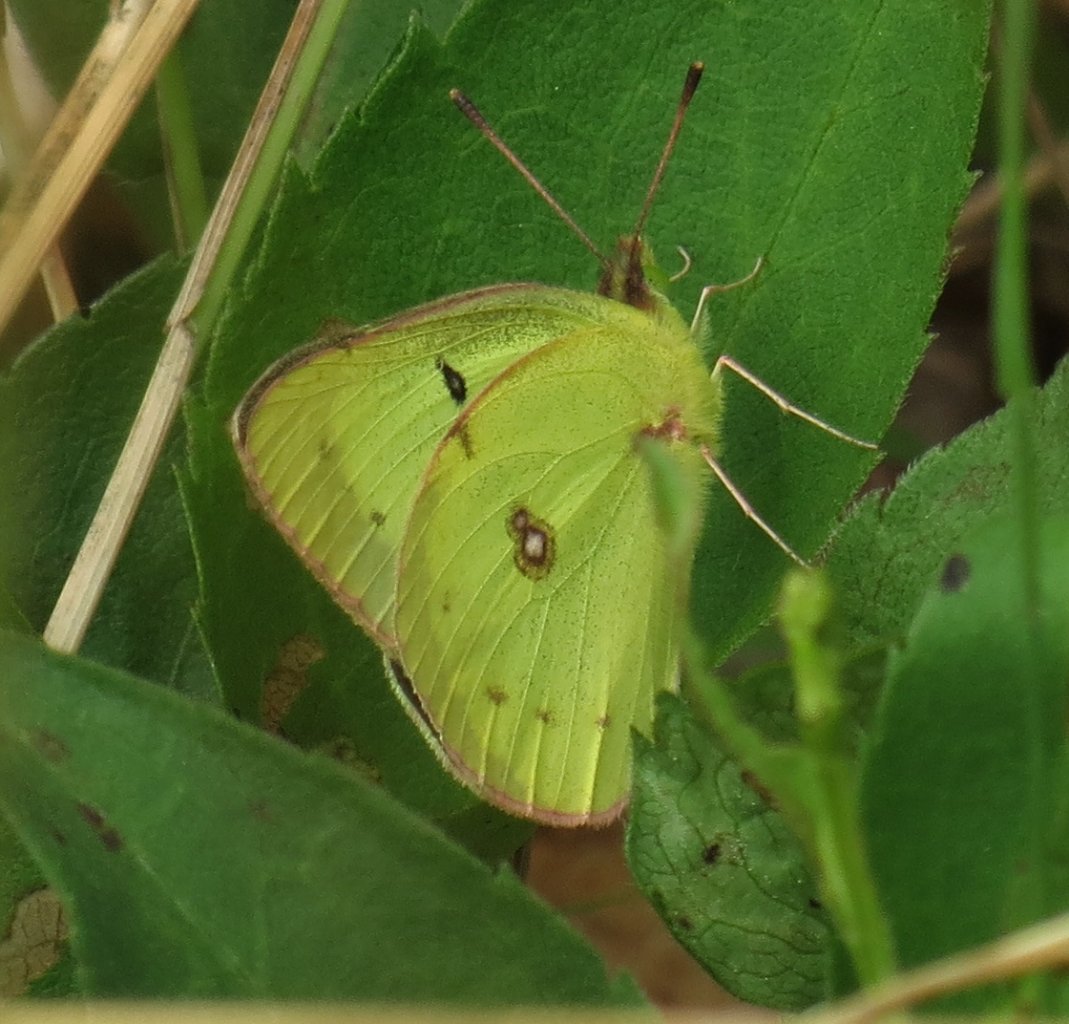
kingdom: Animalia
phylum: Arthropoda
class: Insecta
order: Lepidoptera
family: Pieridae
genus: Colias
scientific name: Colias philodice
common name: Clouded Sulphur
